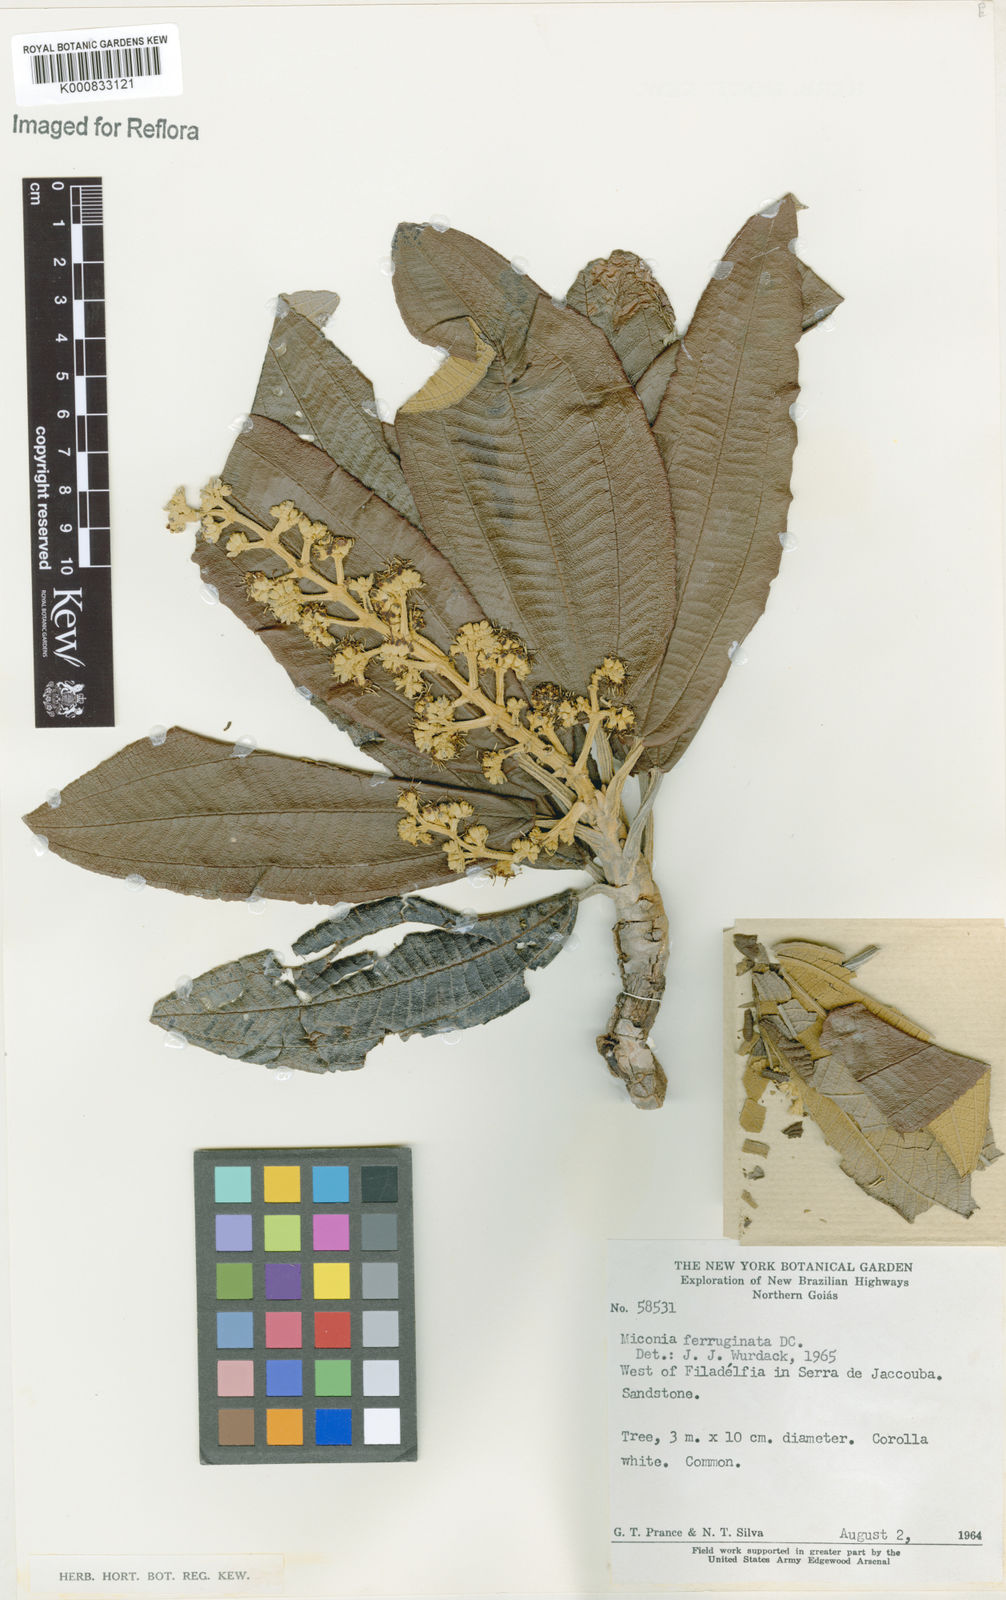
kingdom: Plantae
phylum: Tracheophyta
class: Magnoliopsida
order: Myrtales
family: Melastomataceae
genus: Miconia
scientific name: Miconia ferruginata
